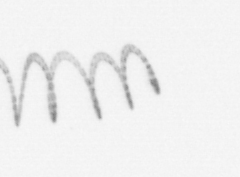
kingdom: Chromista
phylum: Ochrophyta
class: Bacillariophyceae
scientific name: Bacillariophyceae
